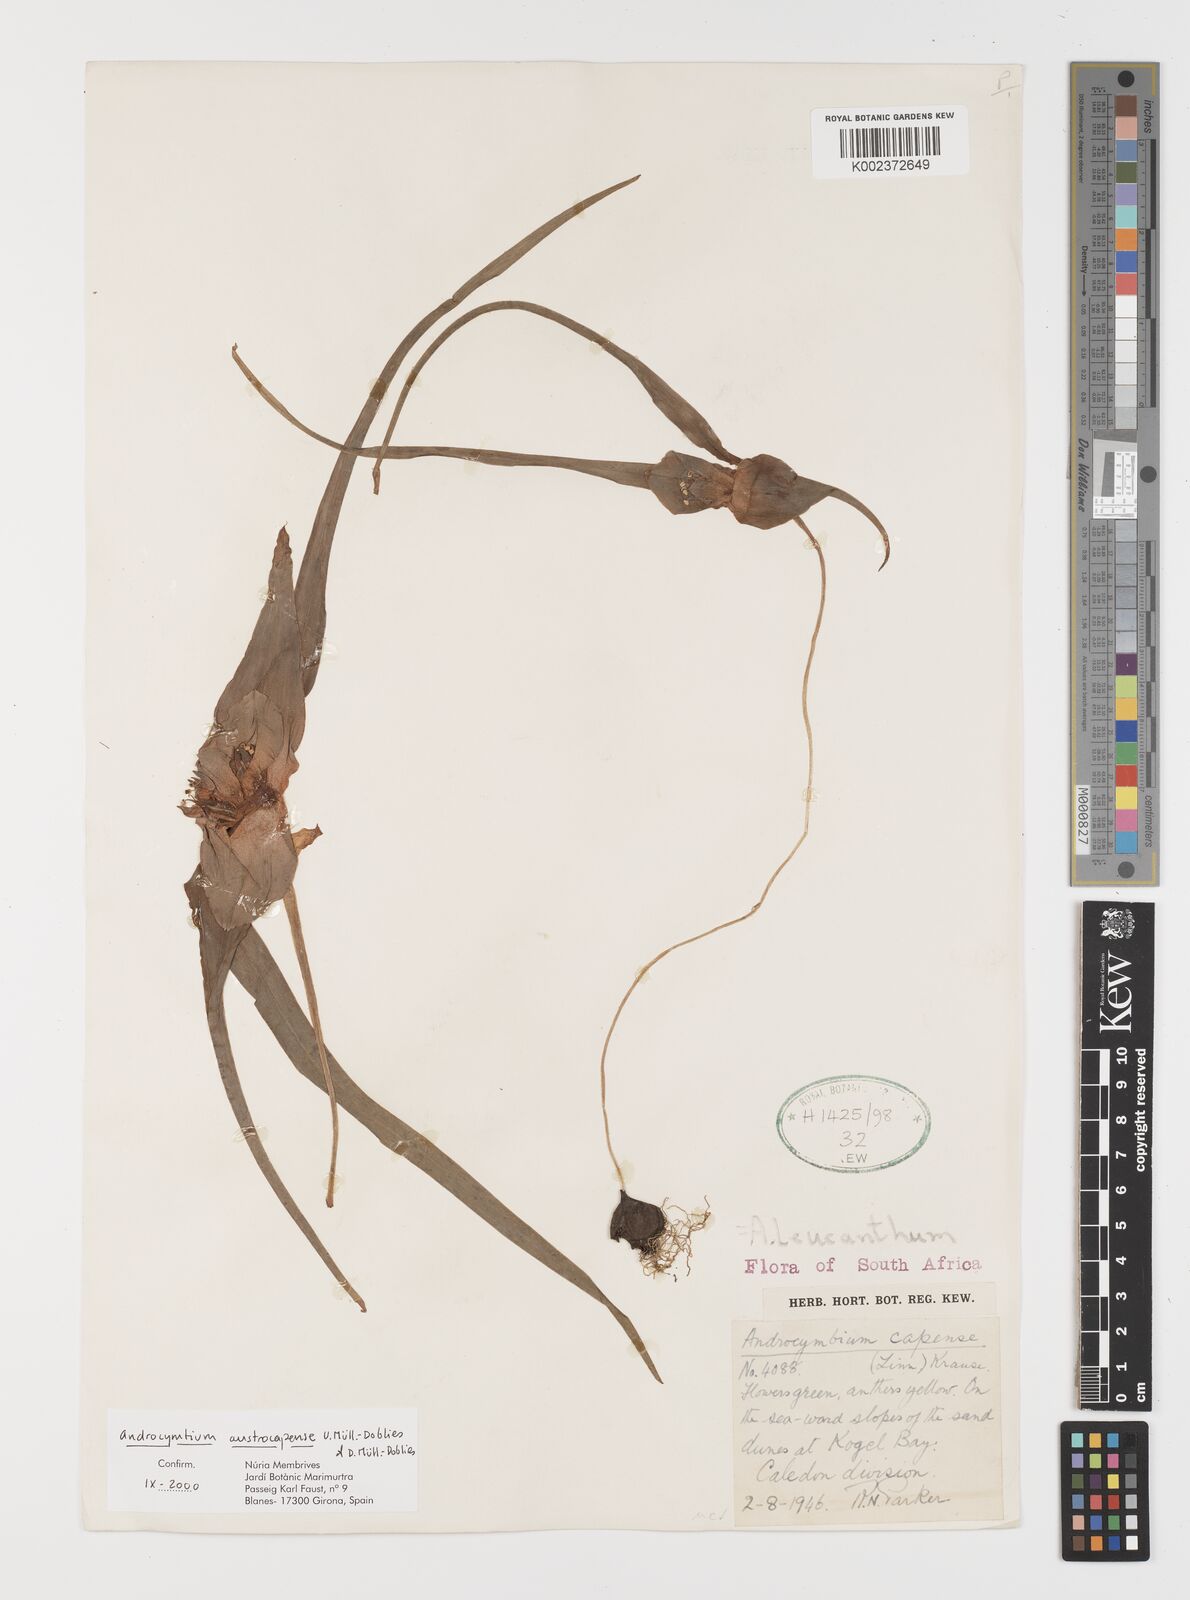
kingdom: Plantae
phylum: Tracheophyta
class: Liliopsida
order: Liliales
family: Colchicaceae
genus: Colchicum
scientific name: Colchicum austrocapense
